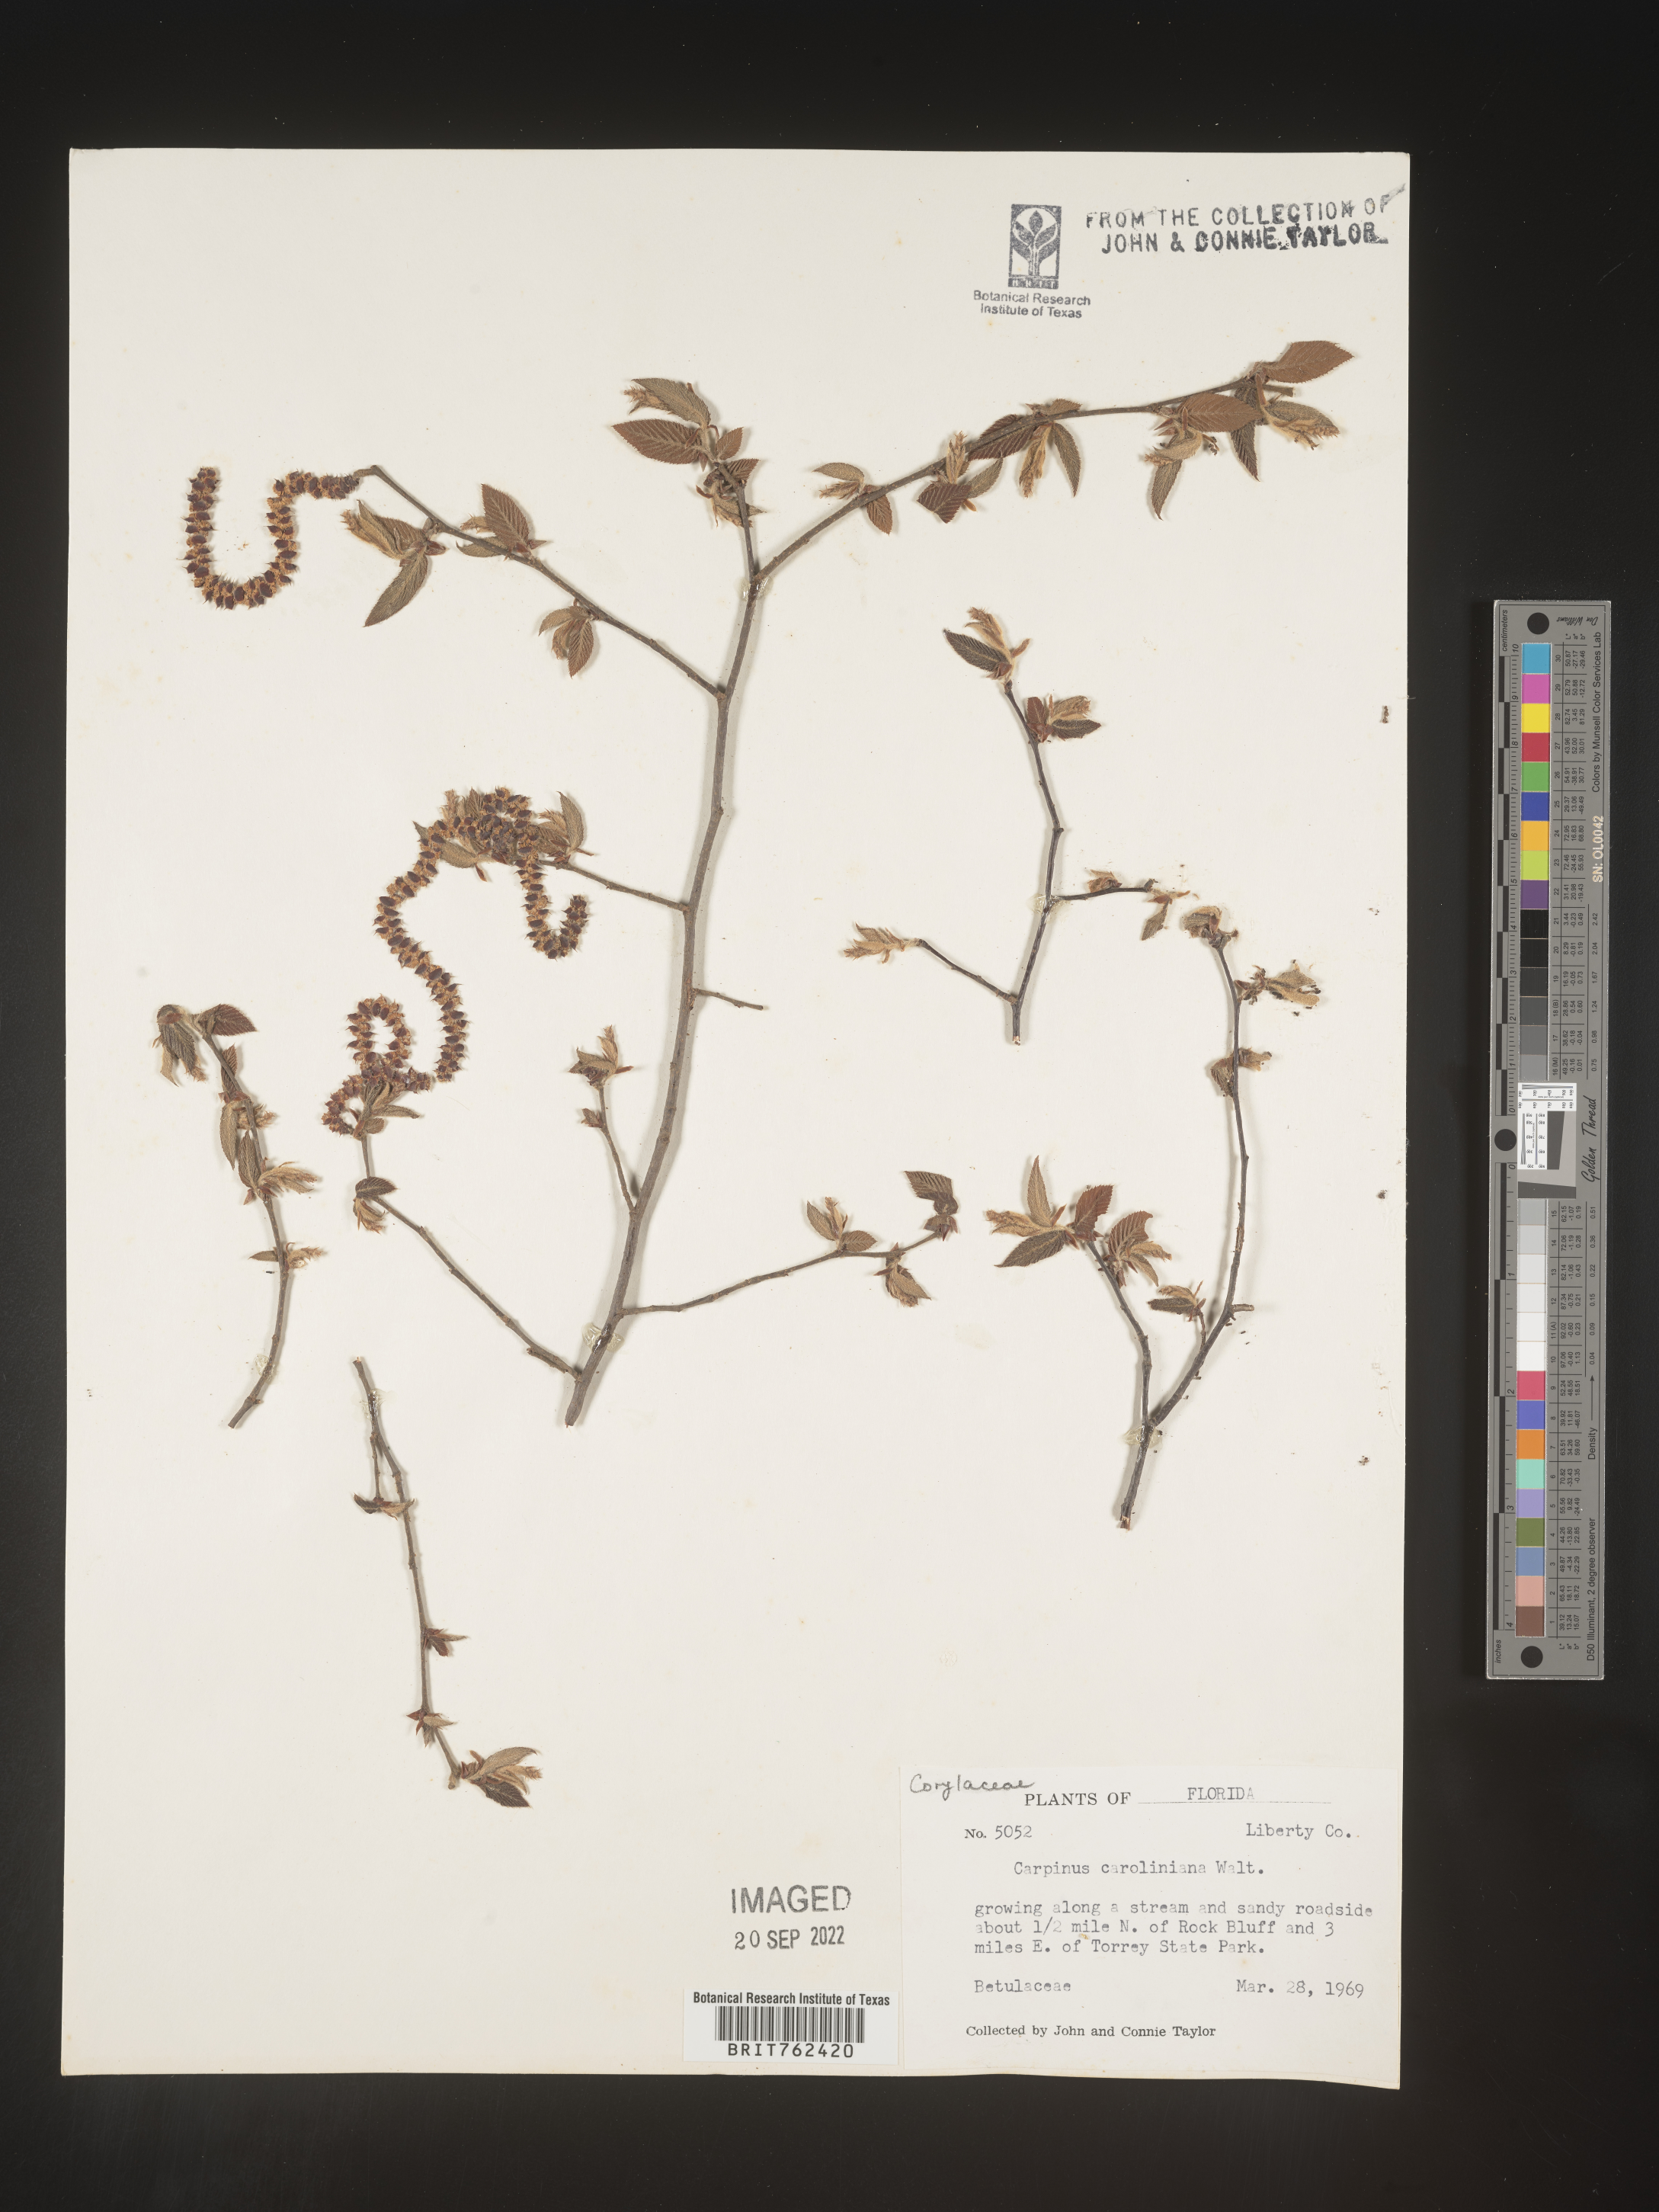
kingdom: Plantae
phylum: Tracheophyta
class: Magnoliopsida
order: Fagales
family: Betulaceae
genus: Carpinus
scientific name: Carpinus caroliniana
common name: American hornbeam
